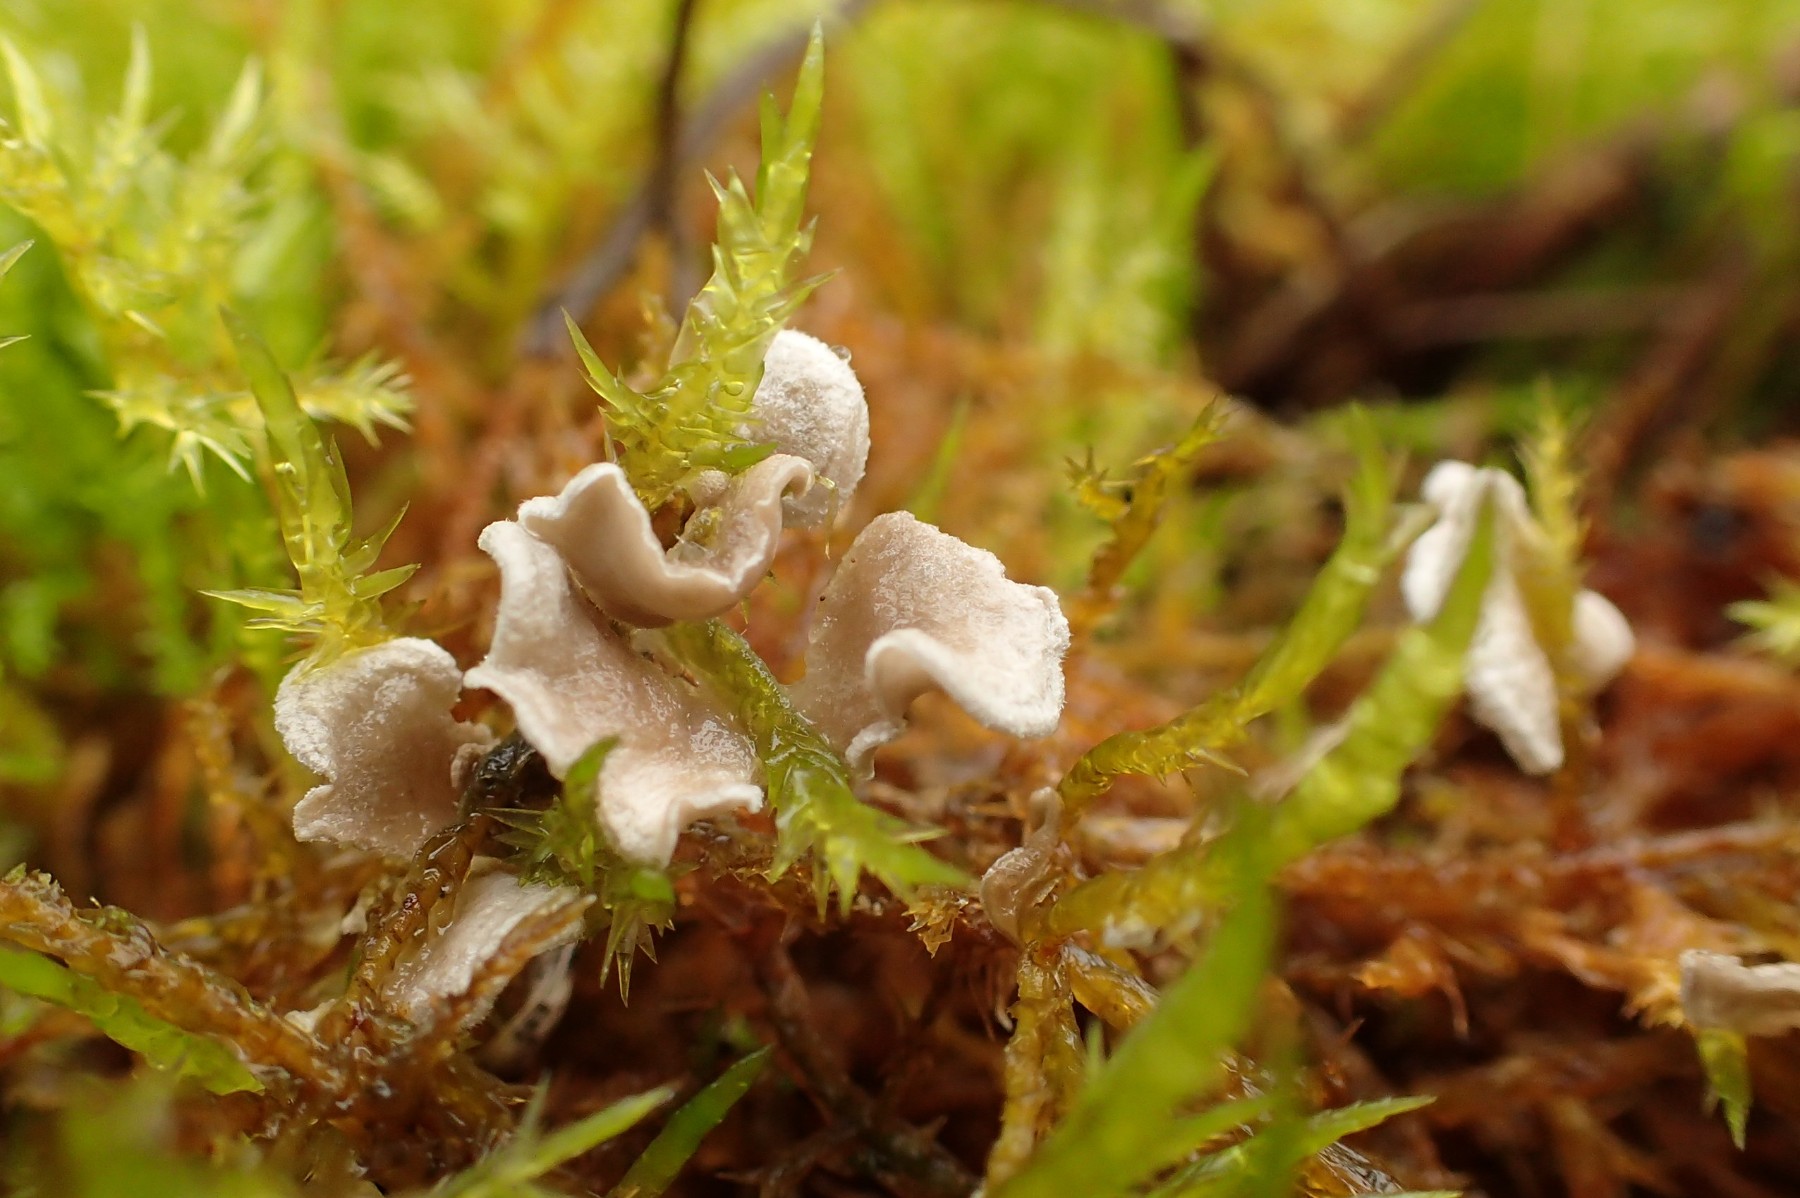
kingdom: Fungi
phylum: Basidiomycota
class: Agaricomycetes
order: Agaricales
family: Hygrophoraceae
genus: Arrhenia
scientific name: Arrhenia retiruga
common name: lille fontænehat
